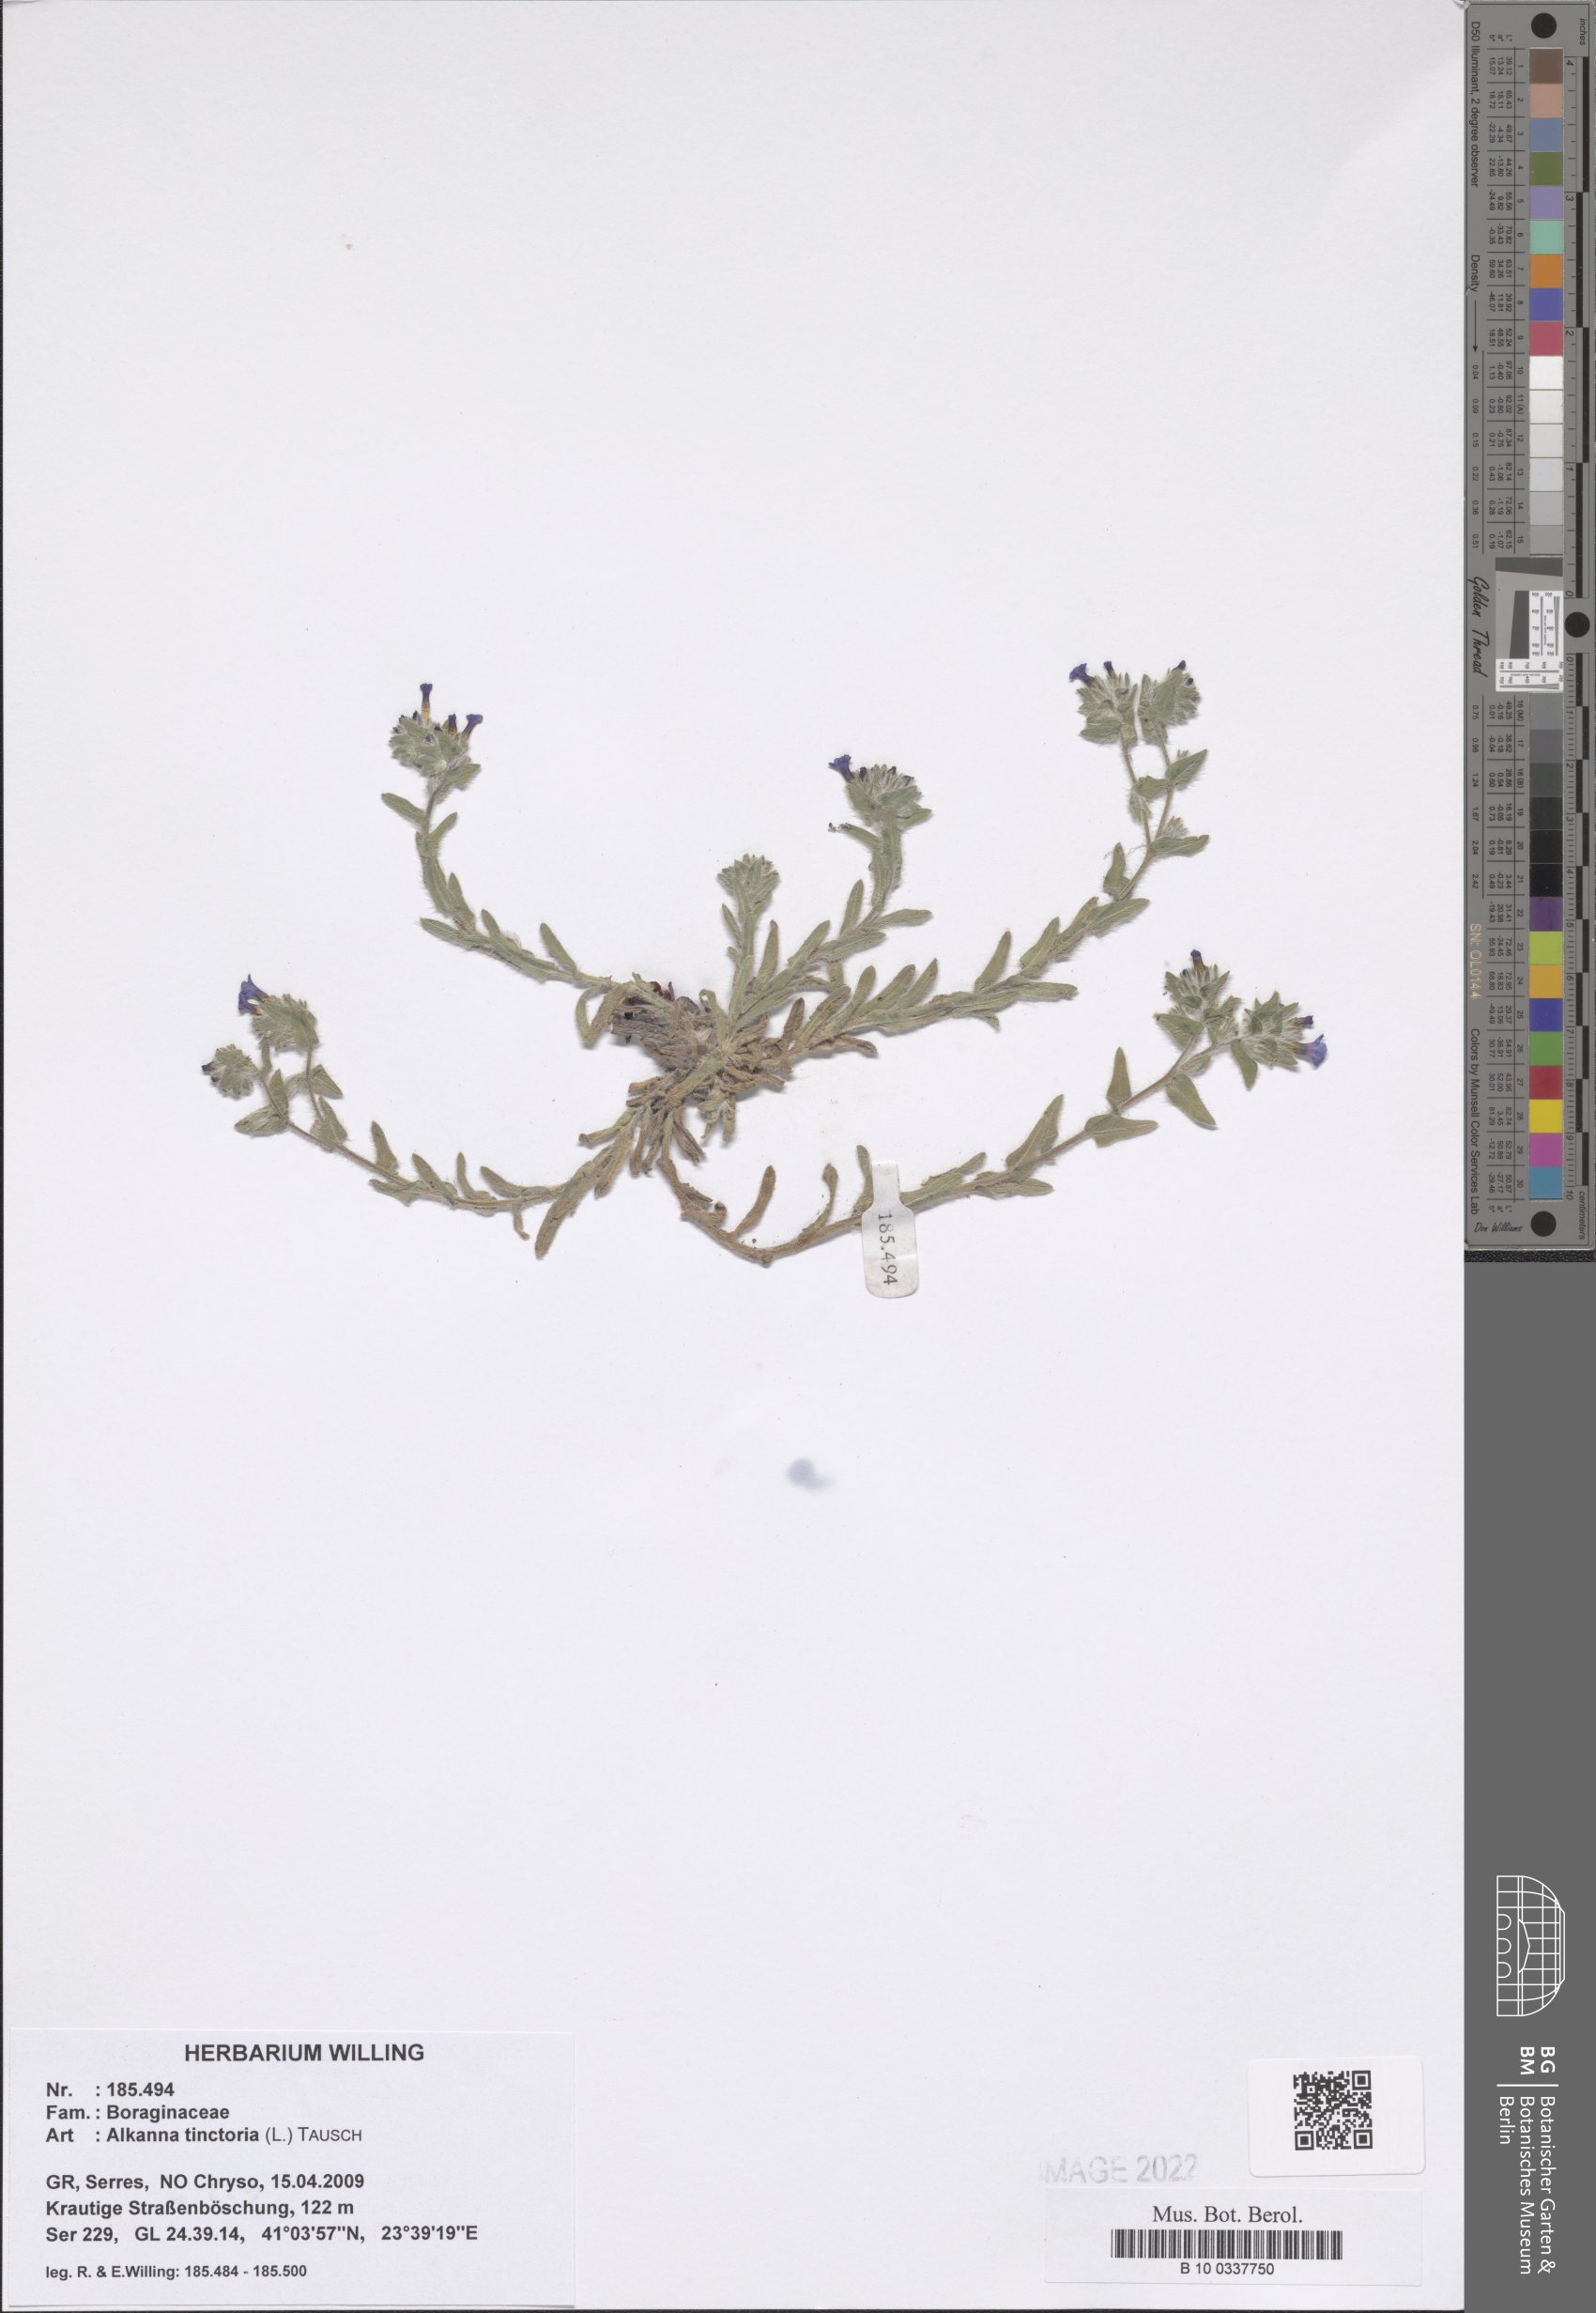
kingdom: Plantae
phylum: Tracheophyta
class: Magnoliopsida
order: Boraginales
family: Boraginaceae
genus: Alkanna
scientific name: Alkanna tinctoria
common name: Dyer's-alkanet
